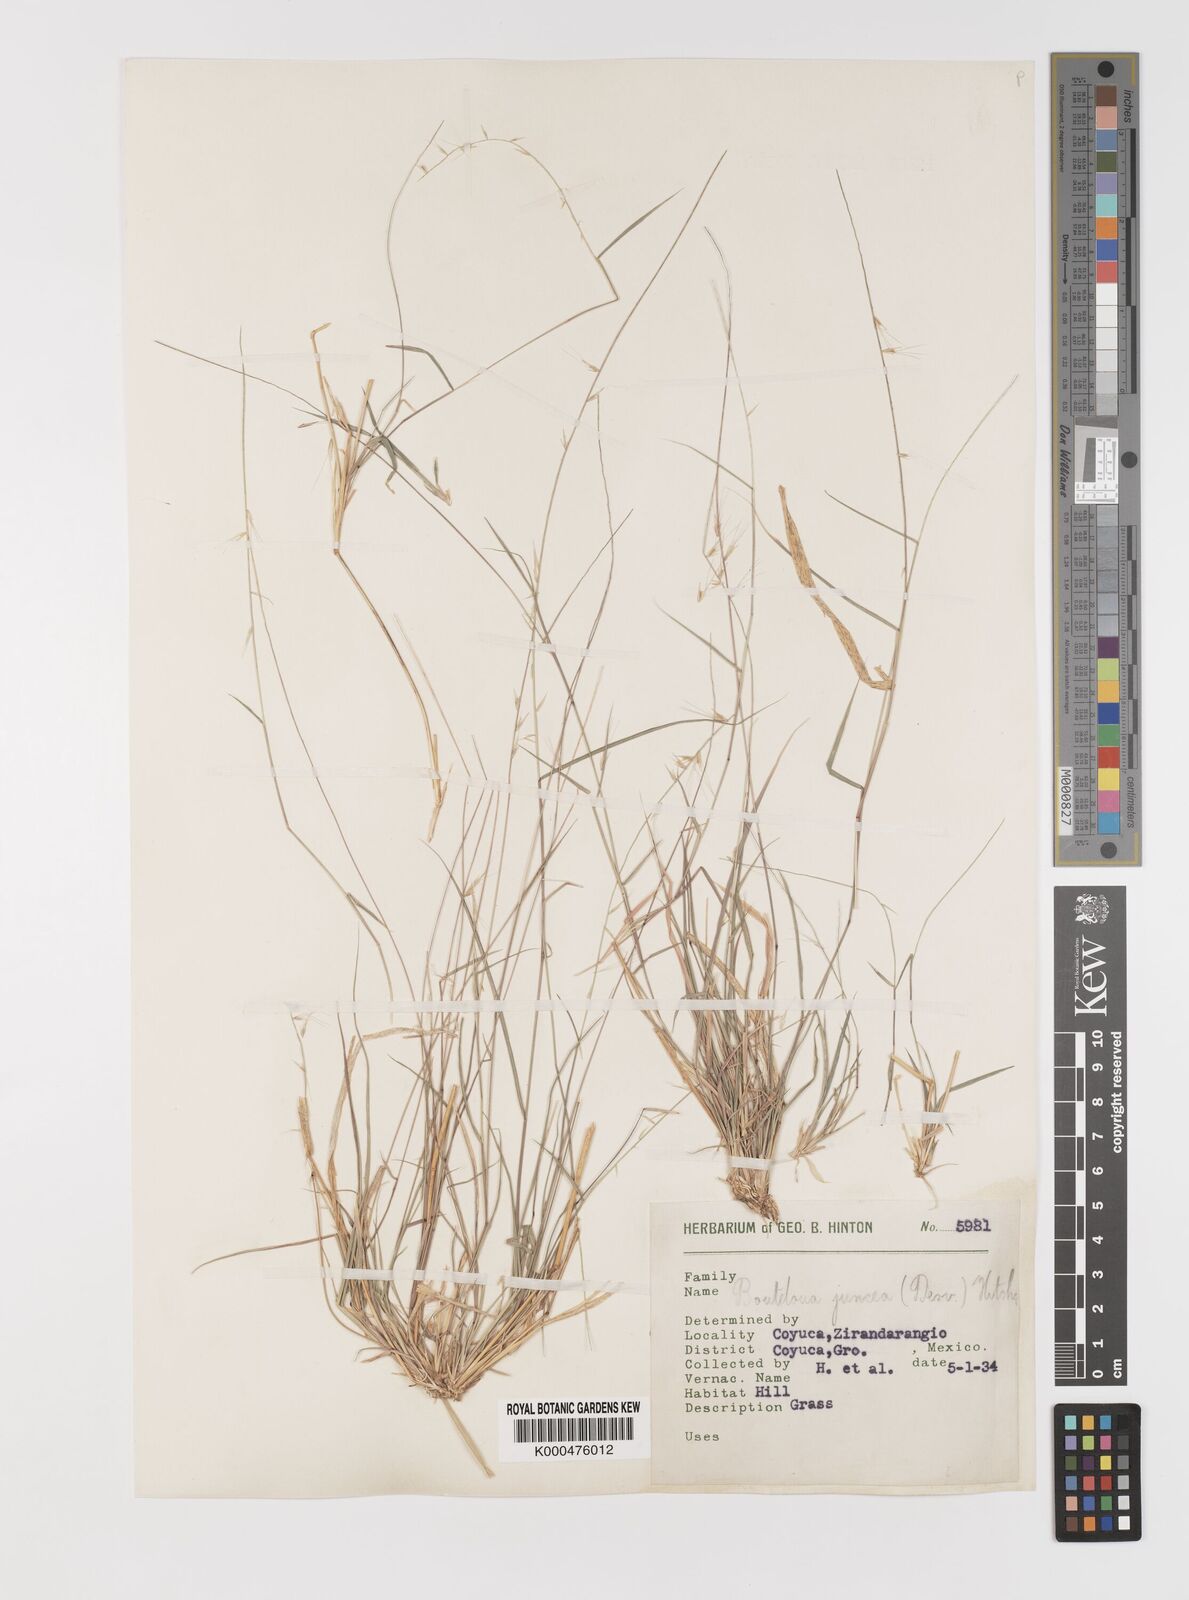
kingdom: Plantae
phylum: Tracheophyta
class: Liliopsida
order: Poales
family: Poaceae
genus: Bouteloua
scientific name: Bouteloua triaena
